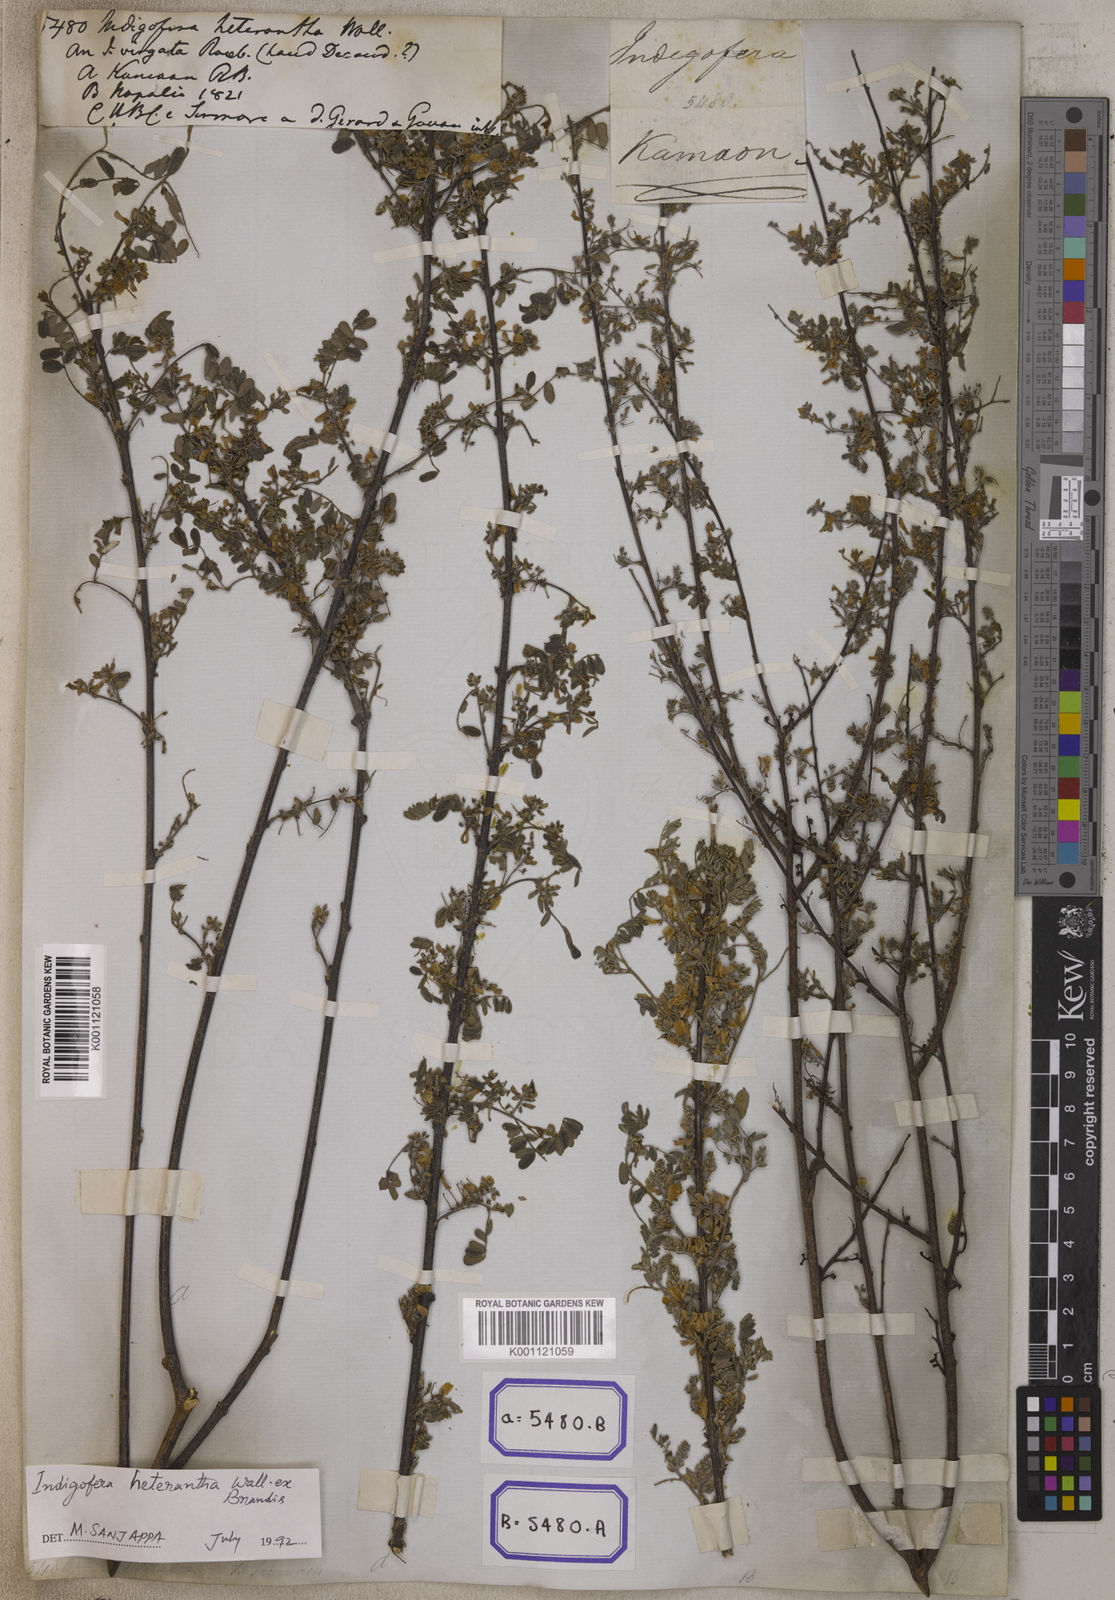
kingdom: Plantae
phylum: Tracheophyta
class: Magnoliopsida
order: Fabales
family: Fabaceae
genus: Indigofera
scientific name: Indigofera
